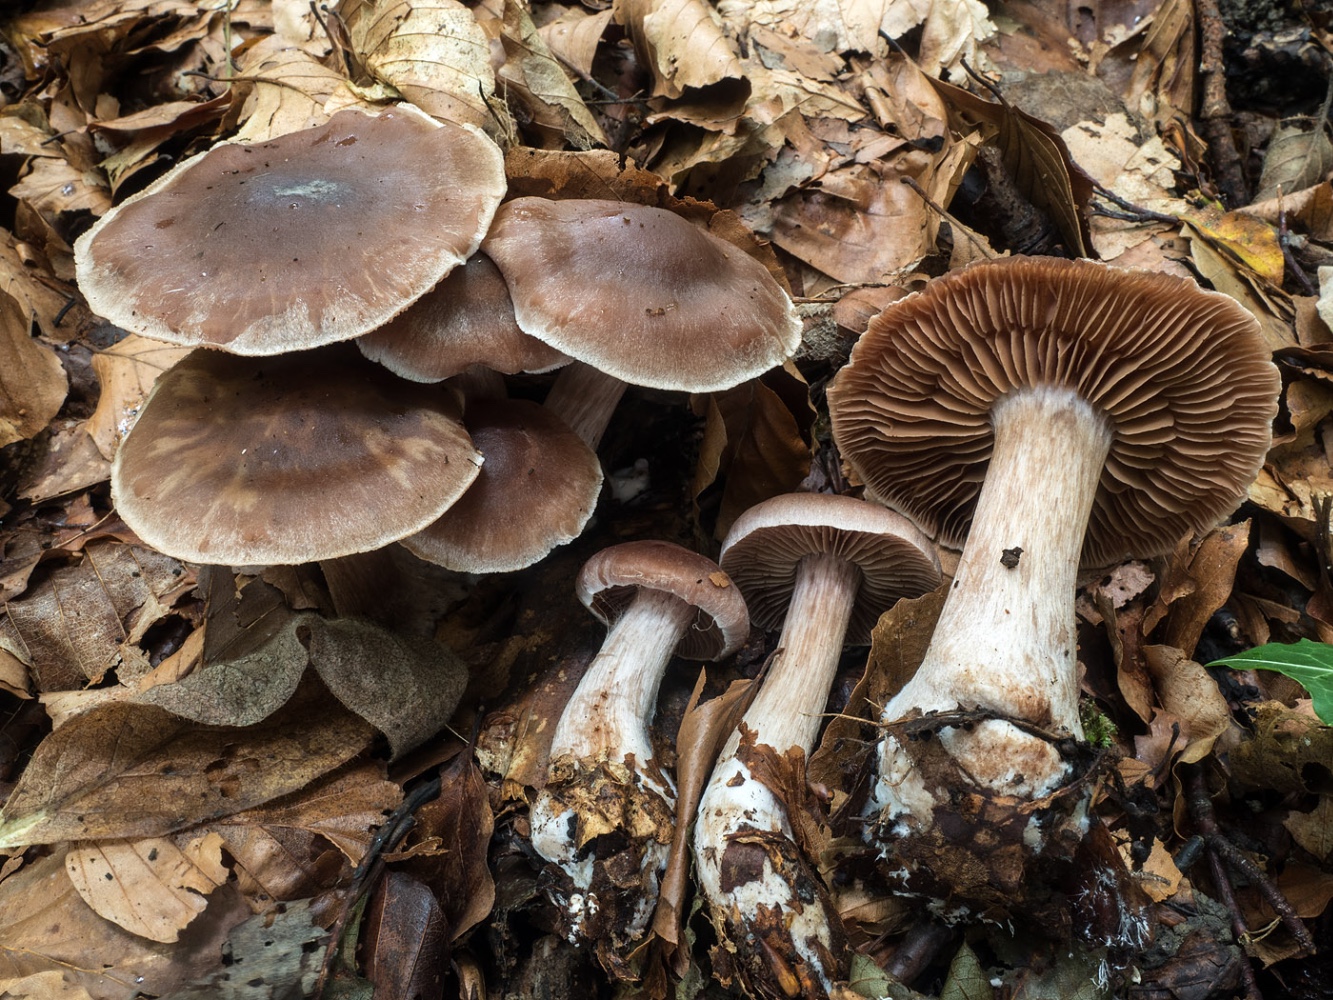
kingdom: Fungi
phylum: Basidiomycota
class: Agaricomycetes
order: Agaricales
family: Cortinariaceae
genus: Cortinarius
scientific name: Cortinarius phaeosmus
